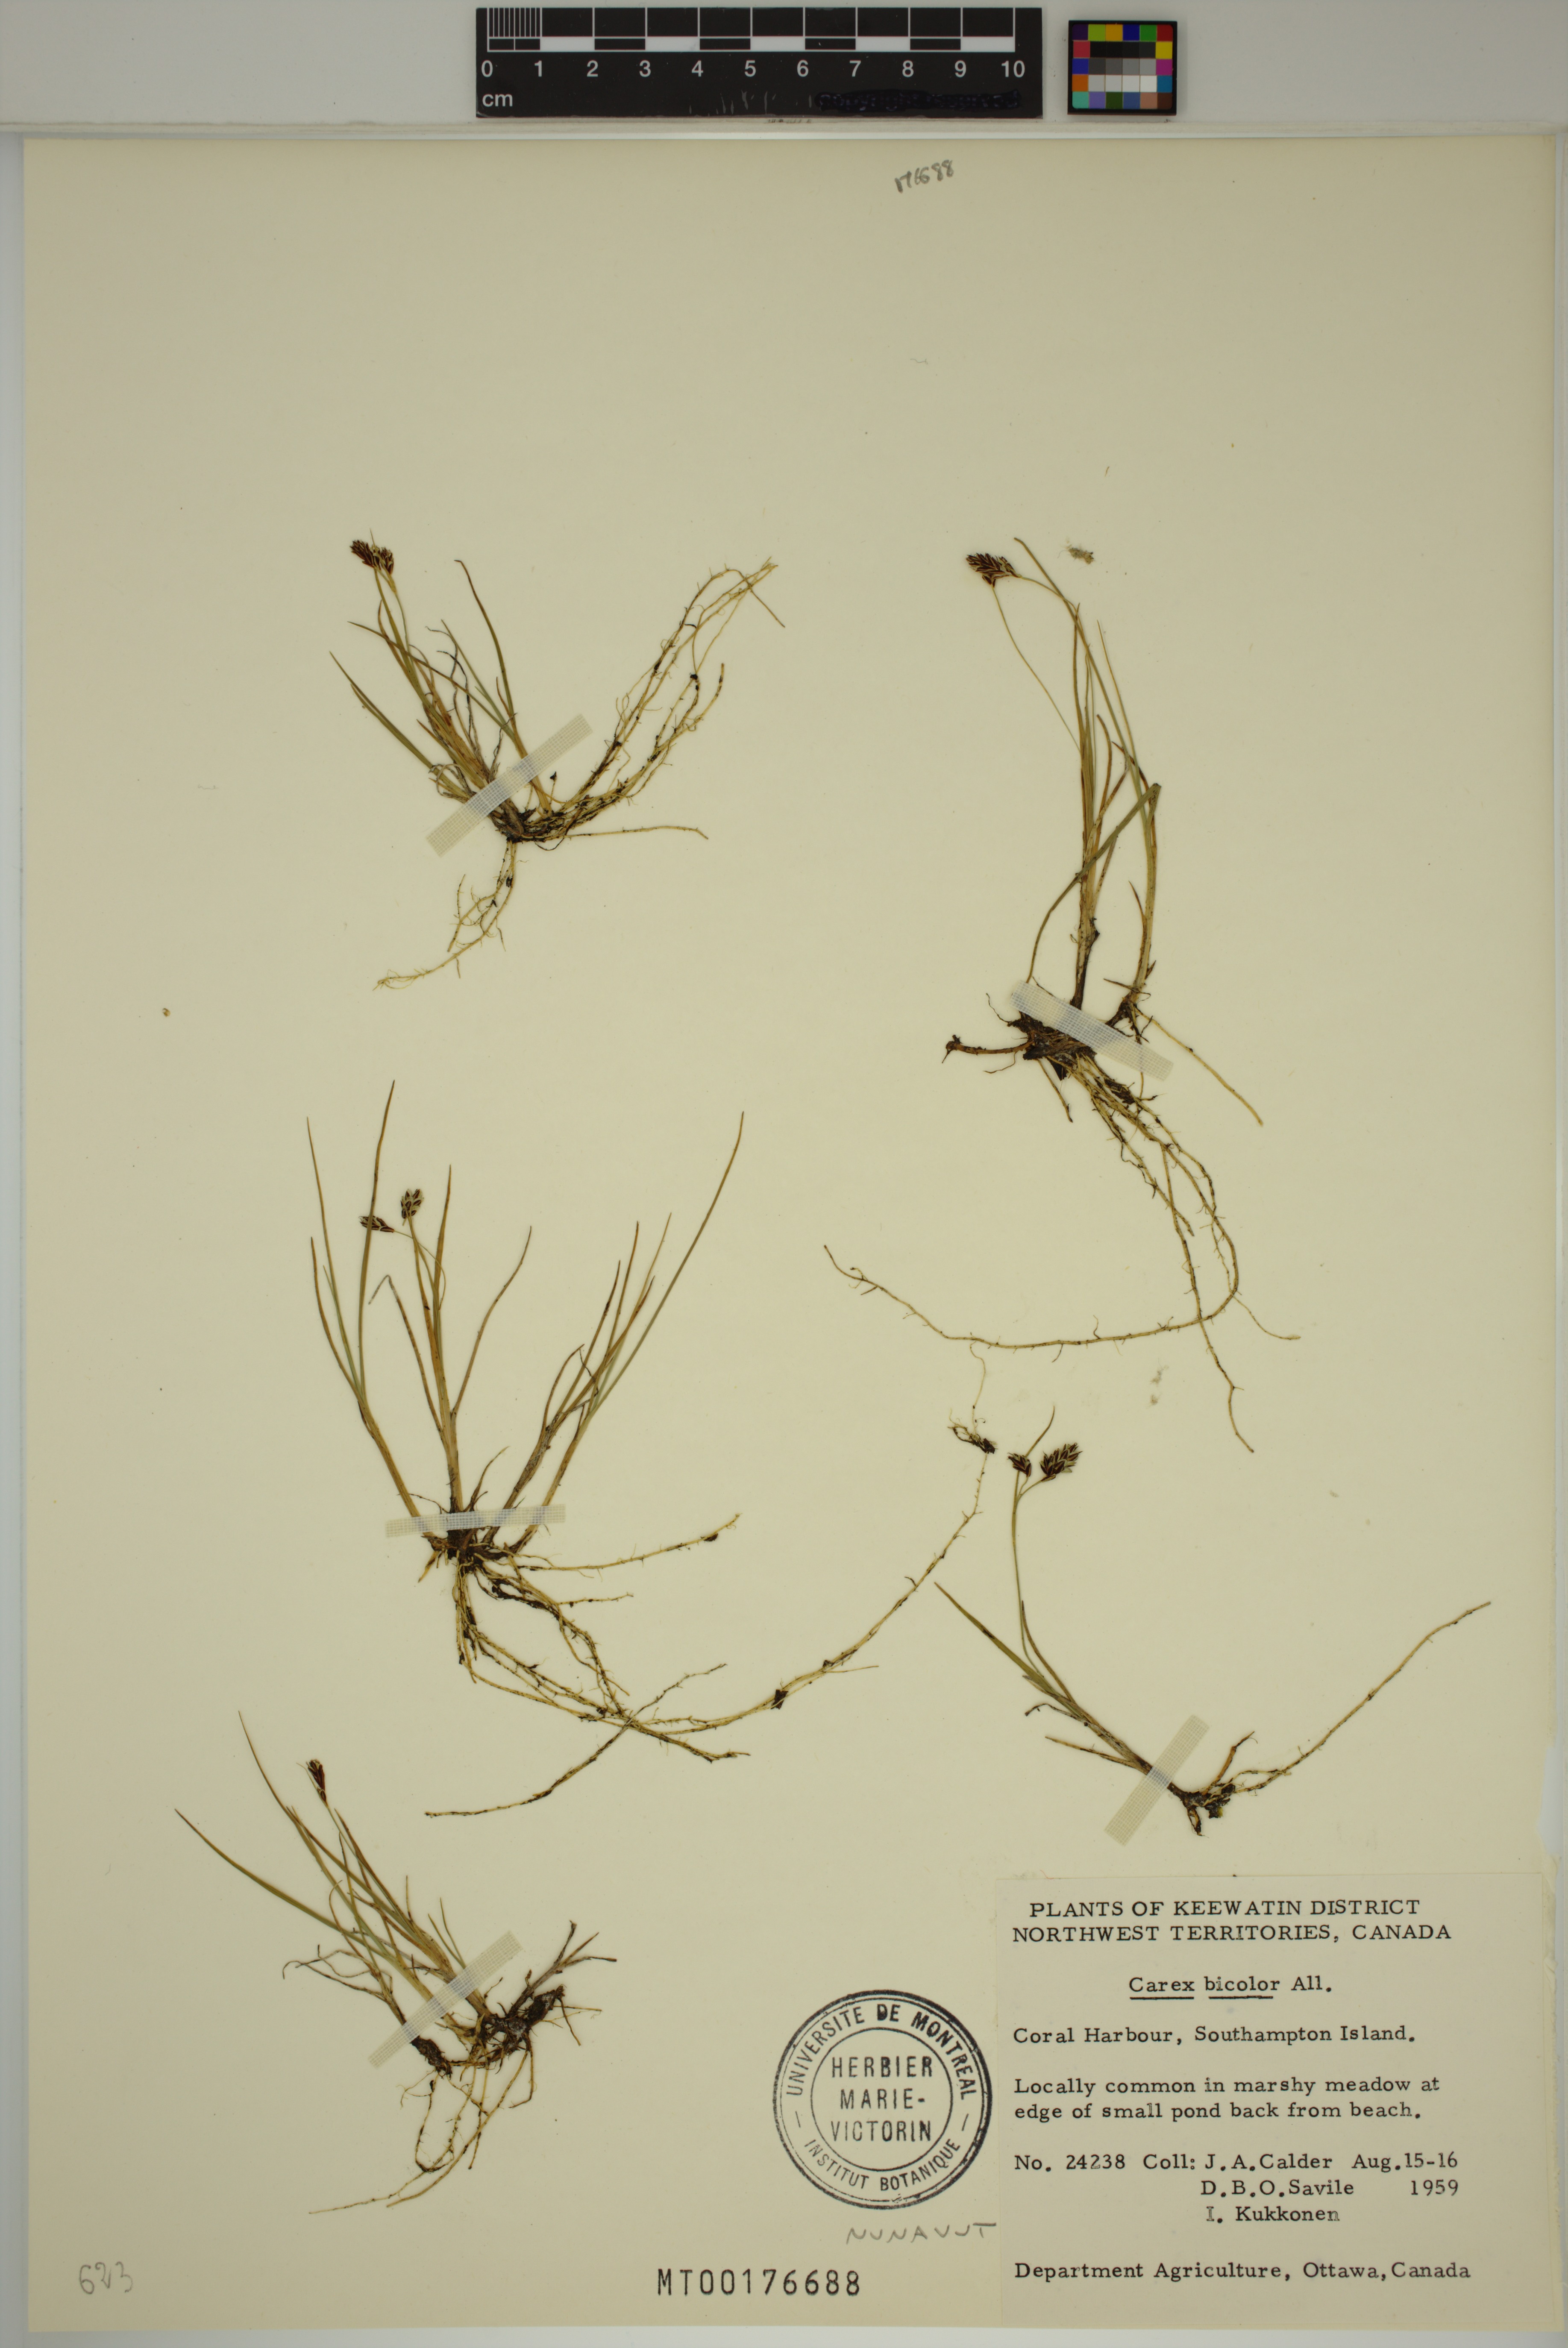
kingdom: Plantae
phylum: Tracheophyta
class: Liliopsida
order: Poales
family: Cyperaceae
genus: Carex
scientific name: Carex bicolor
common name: Bicoloured sedge
